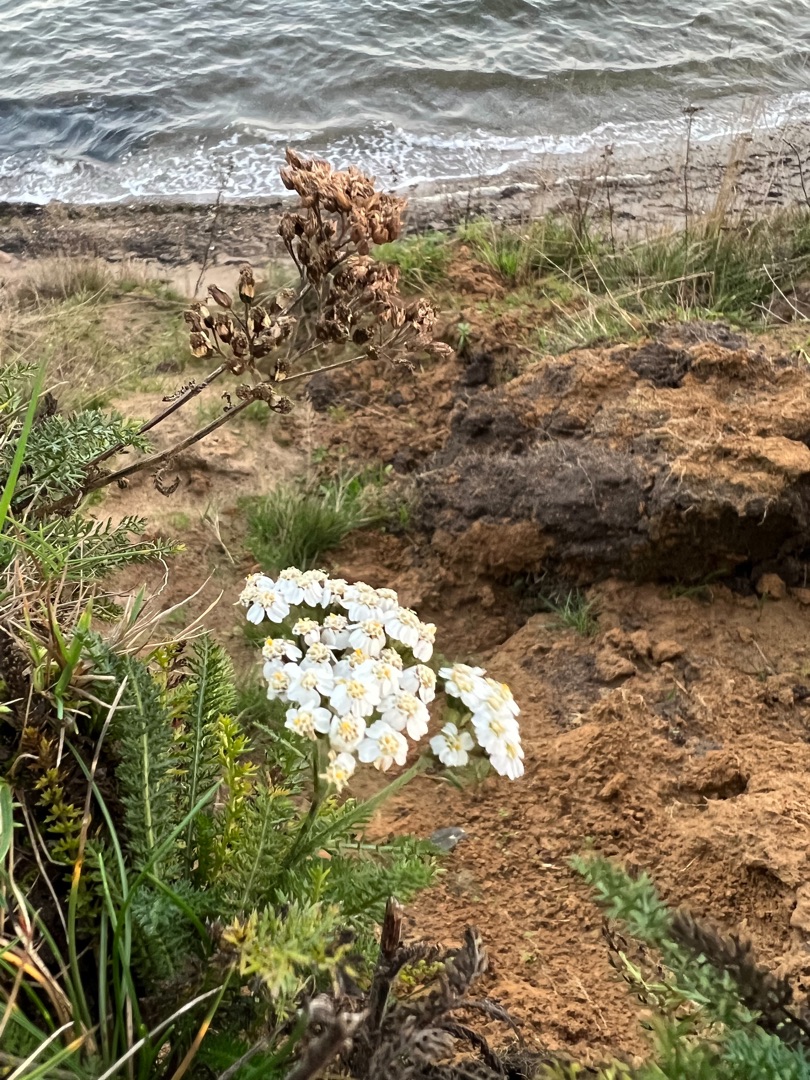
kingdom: Plantae
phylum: Tracheophyta
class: Magnoliopsida
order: Asterales
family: Asteraceae
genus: Achillea
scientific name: Achillea millefolium
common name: Almindelig røllike
